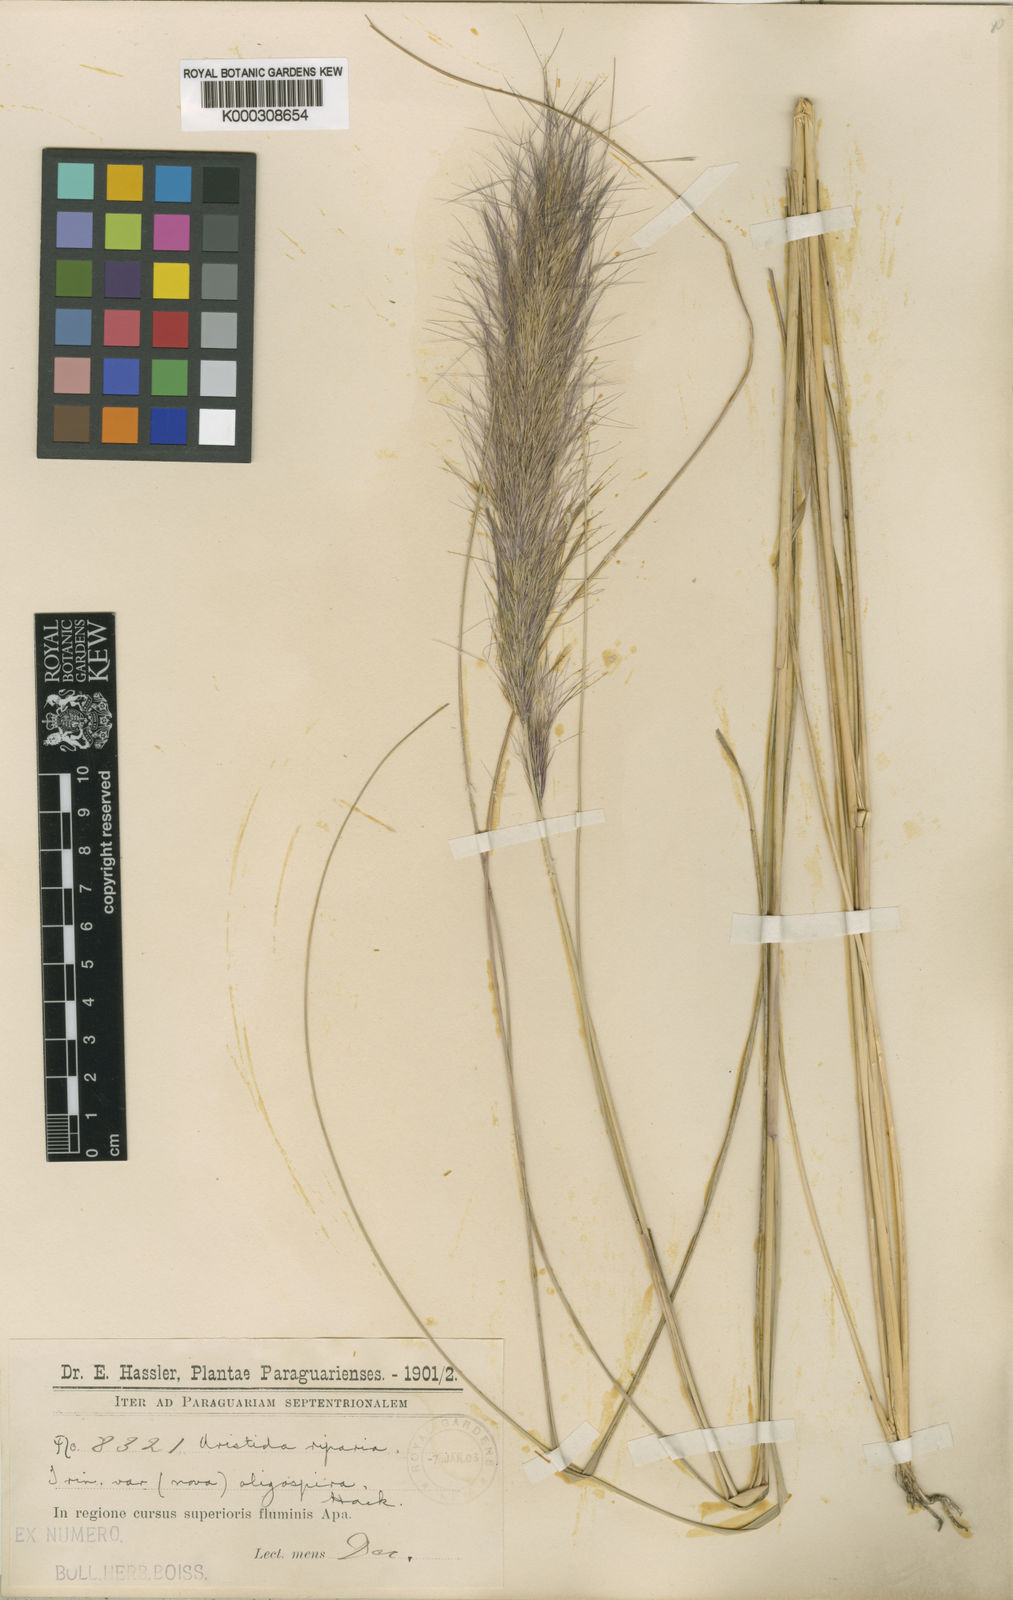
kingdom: Plantae
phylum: Tracheophyta
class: Liliopsida
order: Poales
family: Poaceae
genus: Aristida
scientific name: Aristida oligospira
